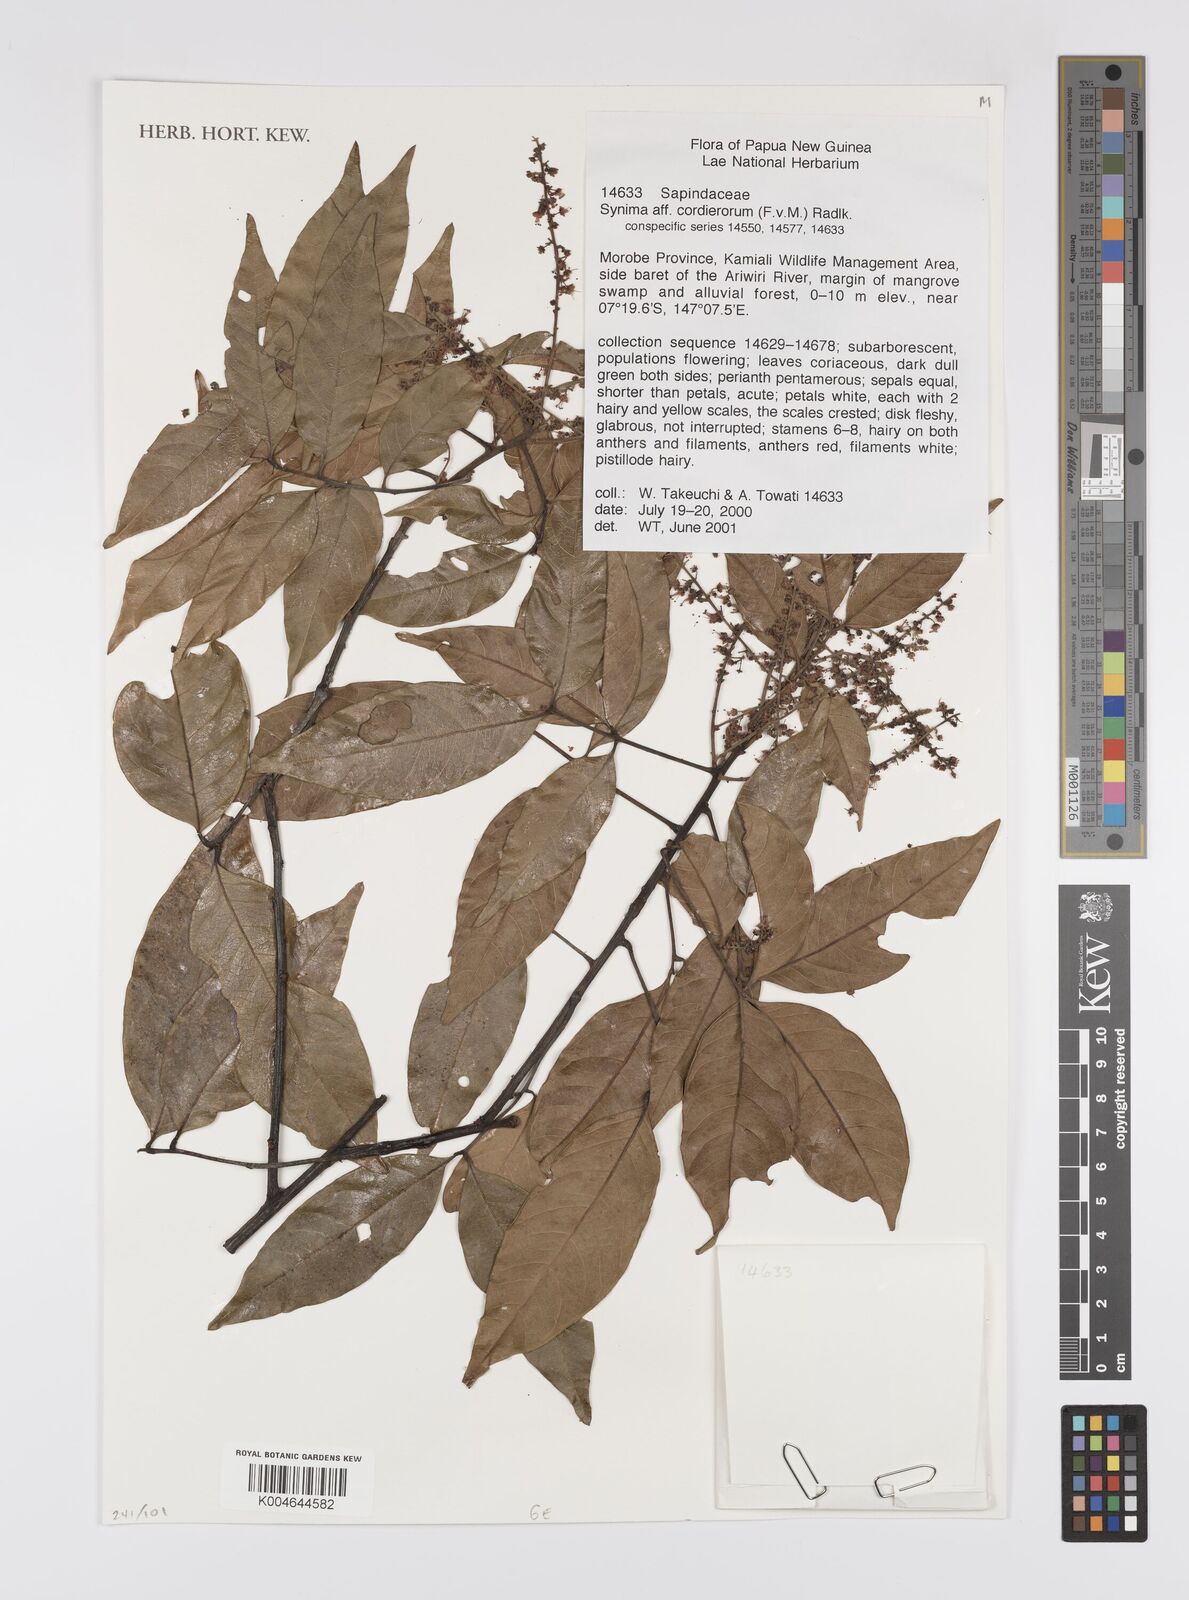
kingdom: Plantae
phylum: Tracheophyta
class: Magnoliopsida
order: Sapindales
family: Sapindaceae
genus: Synima
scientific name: Synima cordierorum
